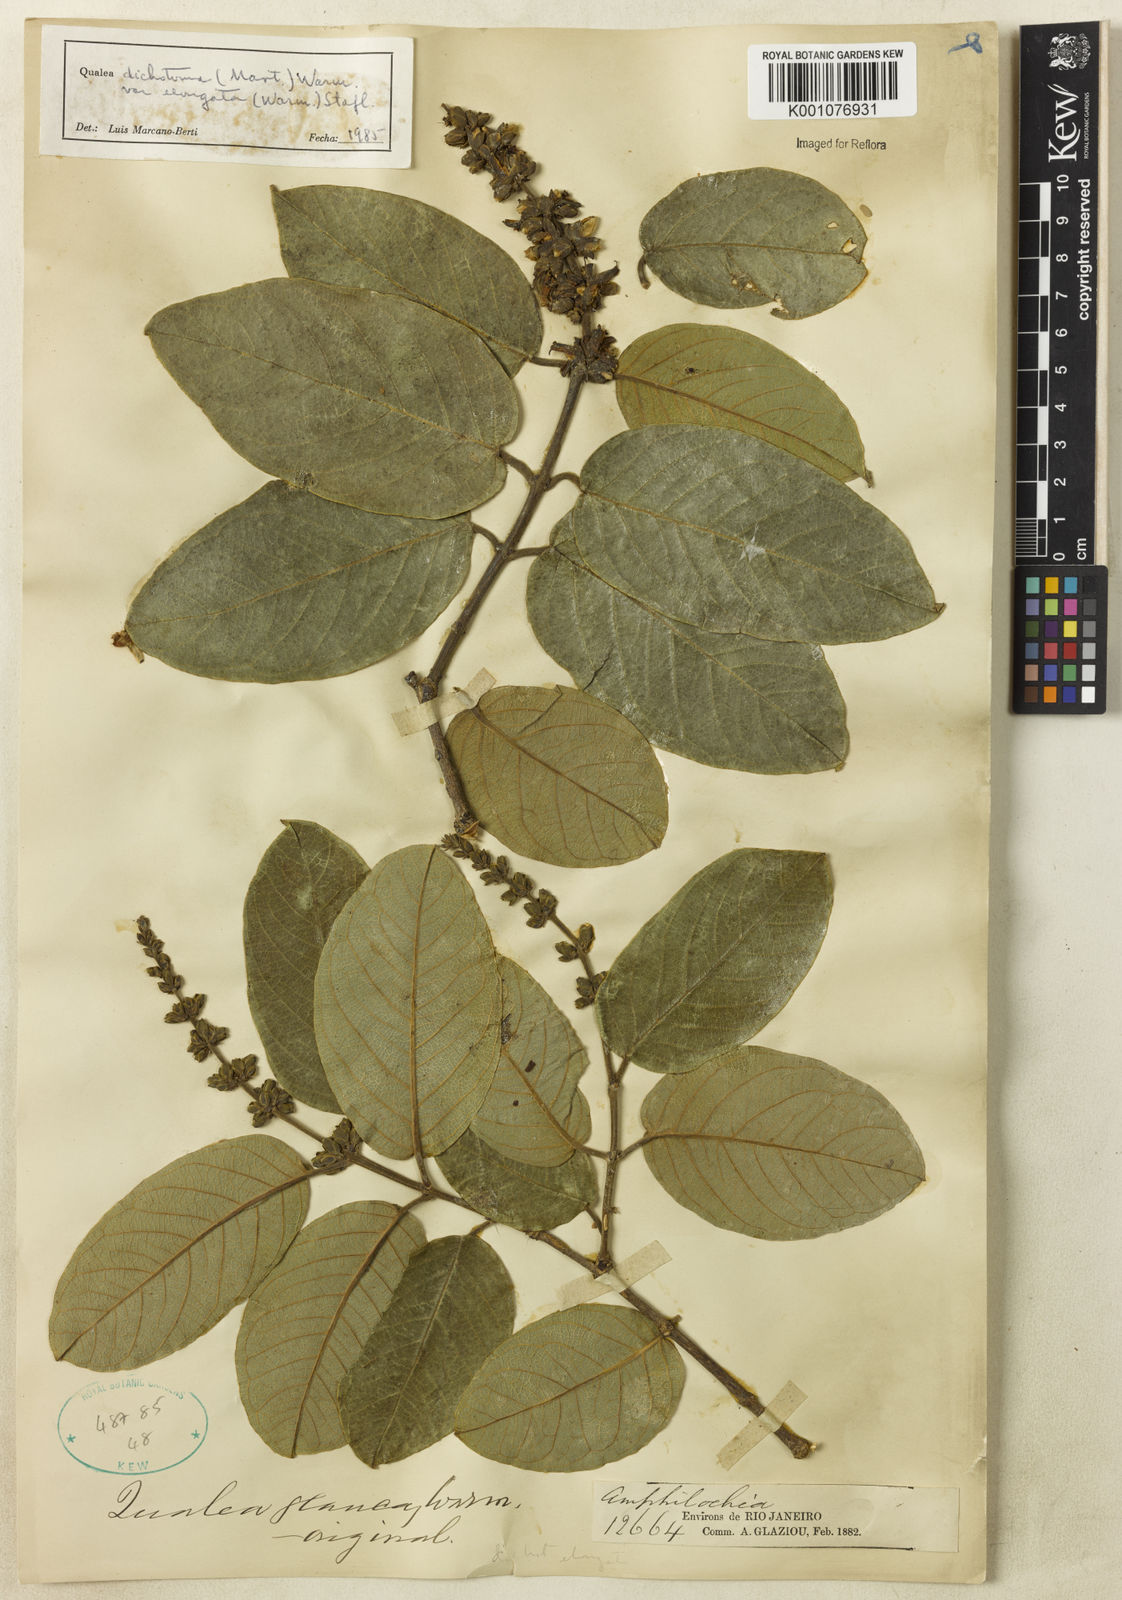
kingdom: Plantae
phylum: Tracheophyta
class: Magnoliopsida
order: Myrtales
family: Vochysiaceae
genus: Qualea
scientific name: Qualea cordata
